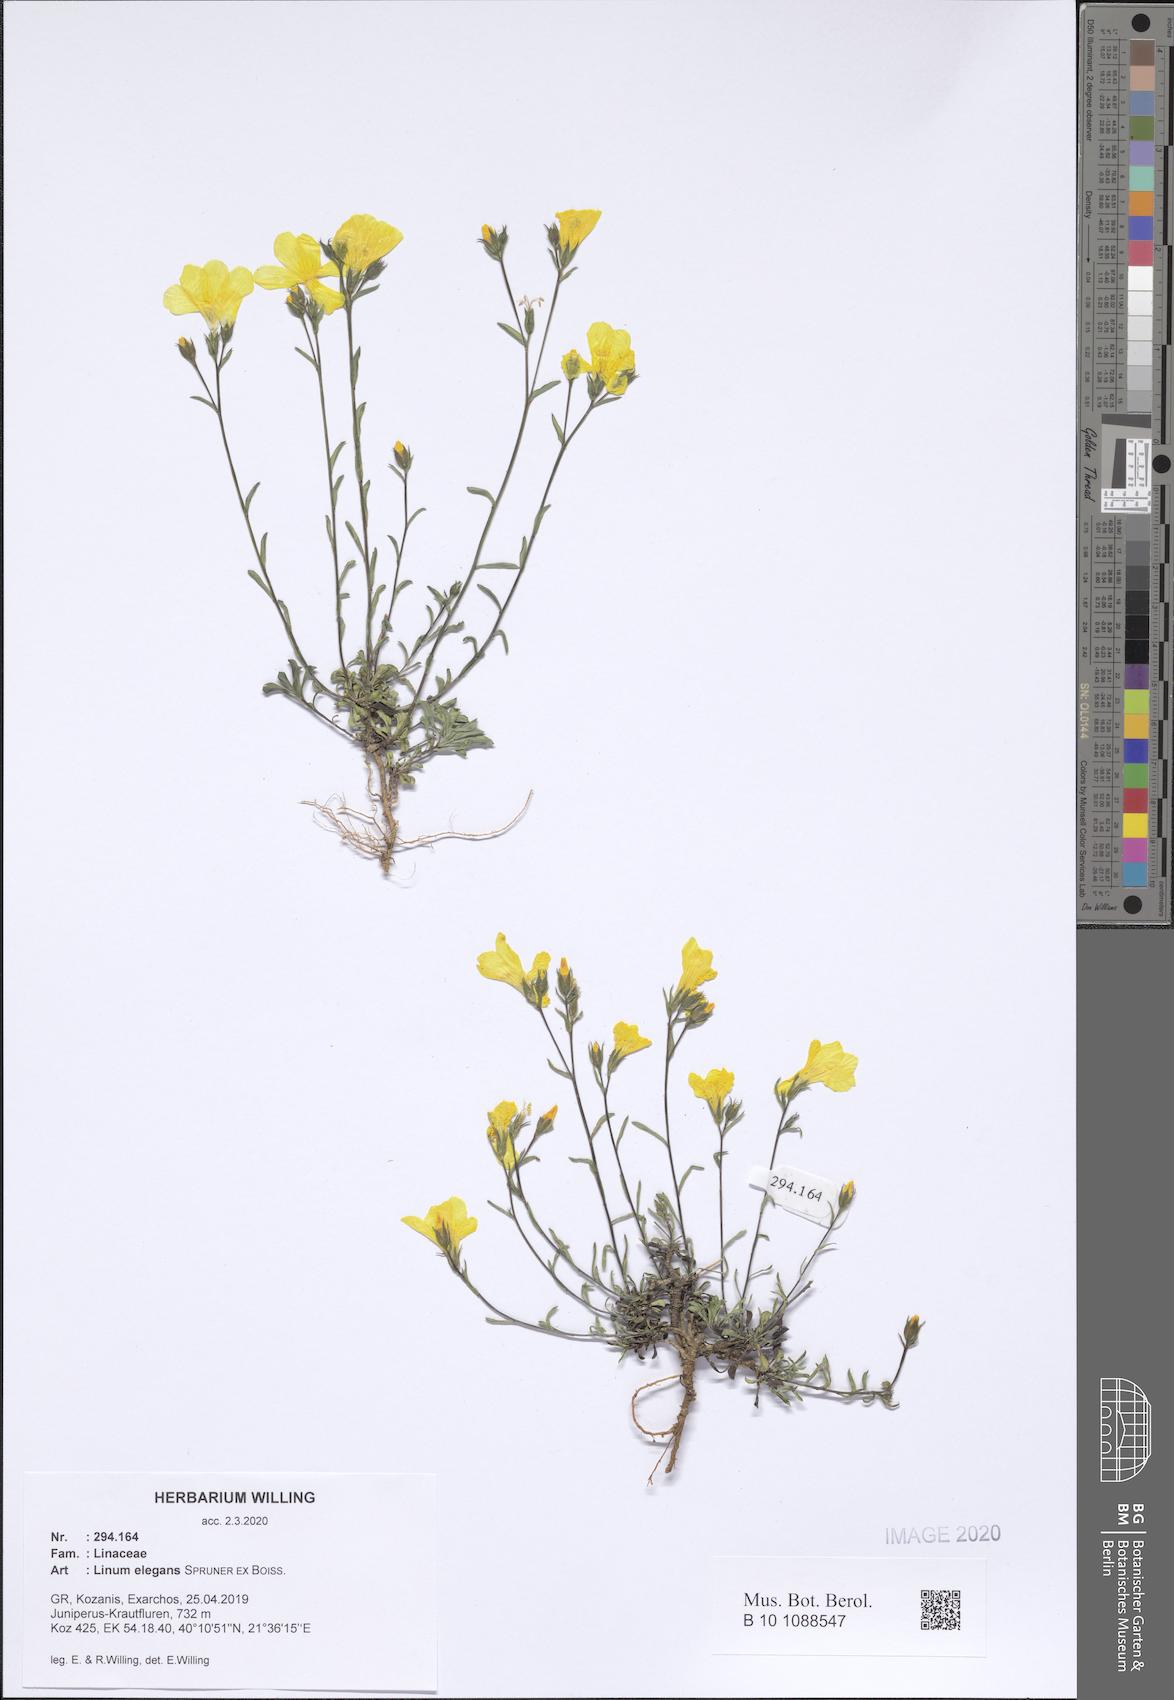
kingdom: Plantae
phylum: Tracheophyta
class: Magnoliopsida
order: Malpighiales
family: Linaceae
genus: Linum
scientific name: Linum elegans
